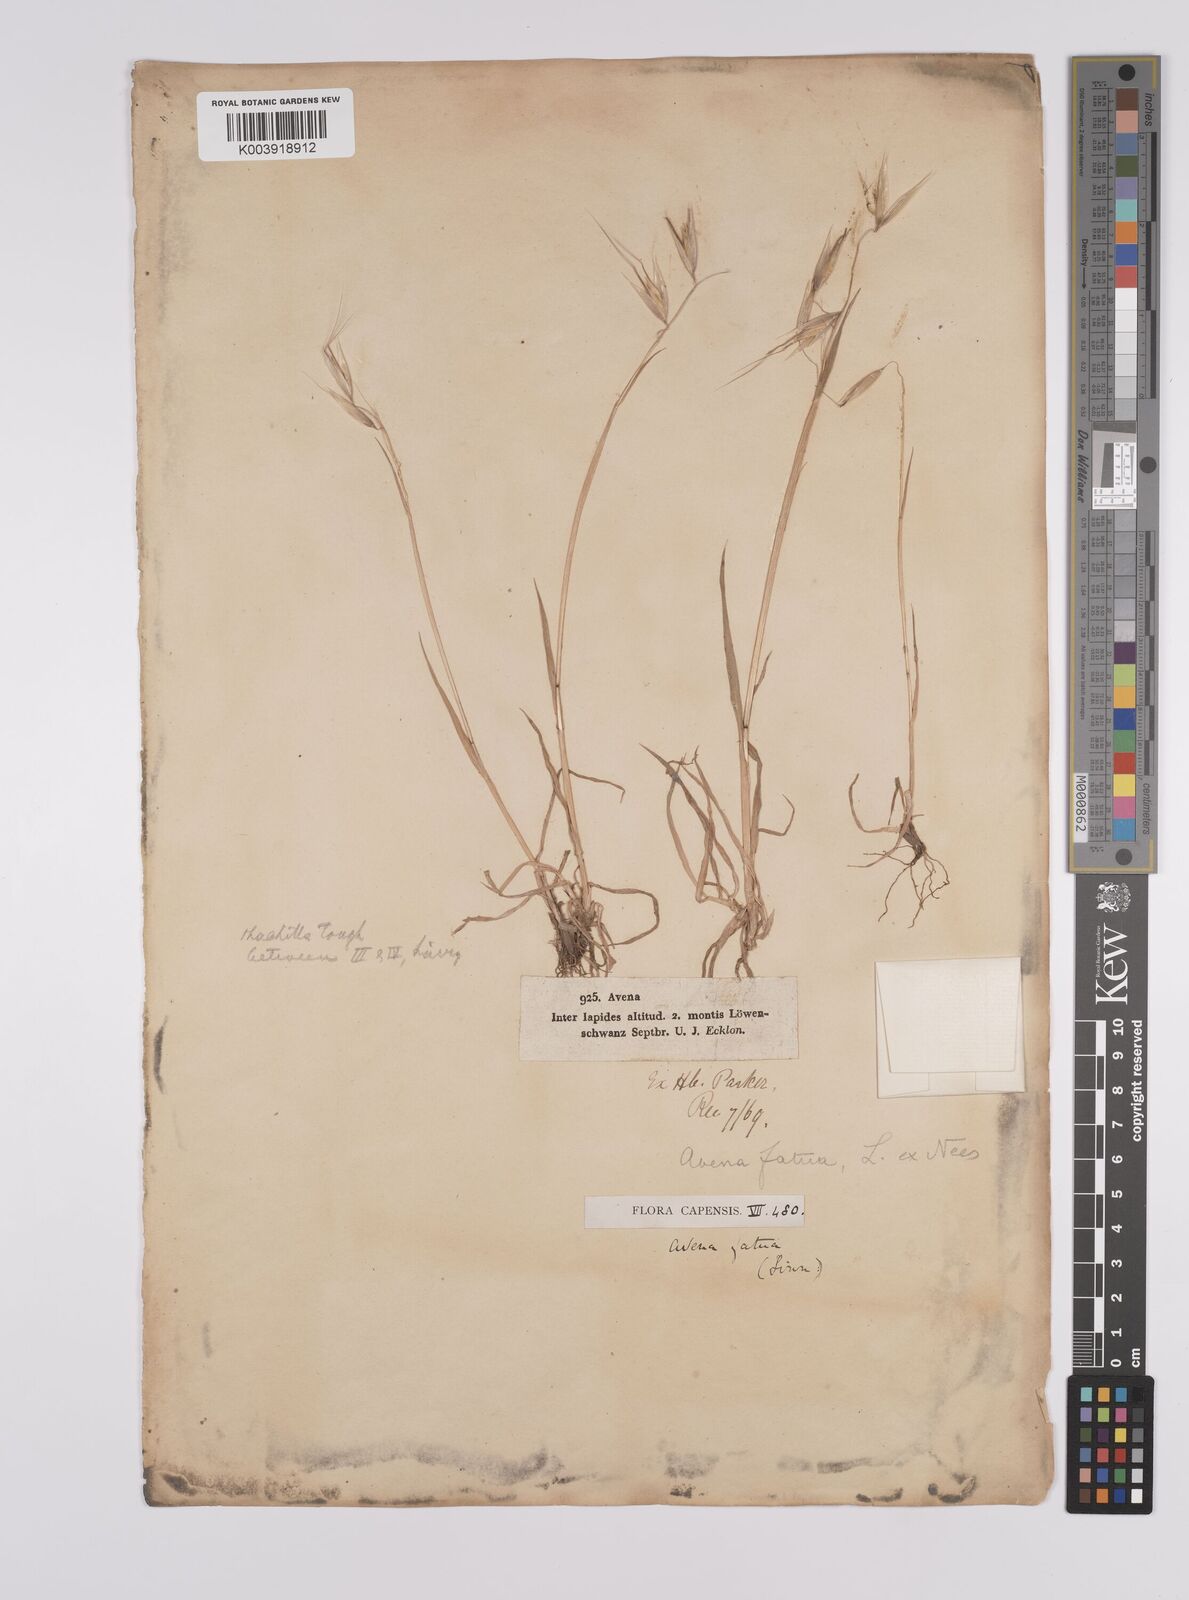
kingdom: Plantae
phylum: Tracheophyta
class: Liliopsida
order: Poales
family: Poaceae
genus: Avena
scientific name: Avena fatua
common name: Wild oat
